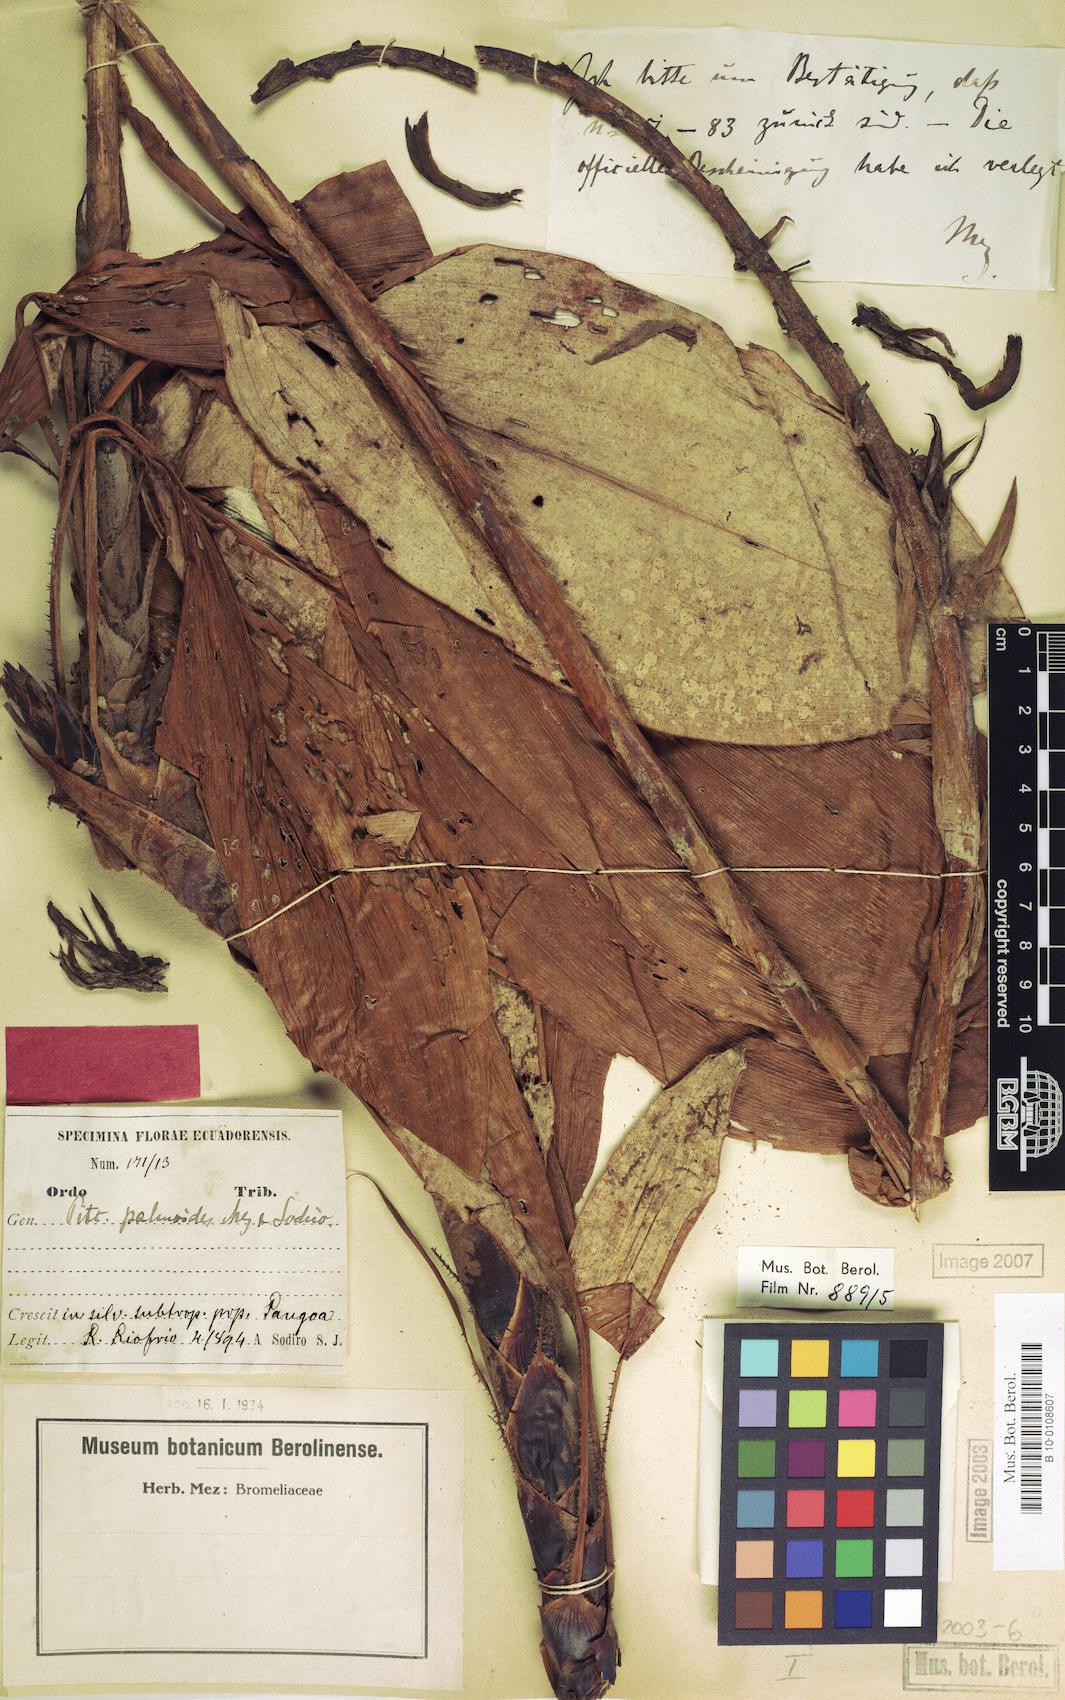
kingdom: Plantae
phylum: Tracheophyta
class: Liliopsida
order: Poales
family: Bromeliaceae
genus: Pitcairnia
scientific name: Pitcairnia palmoides
